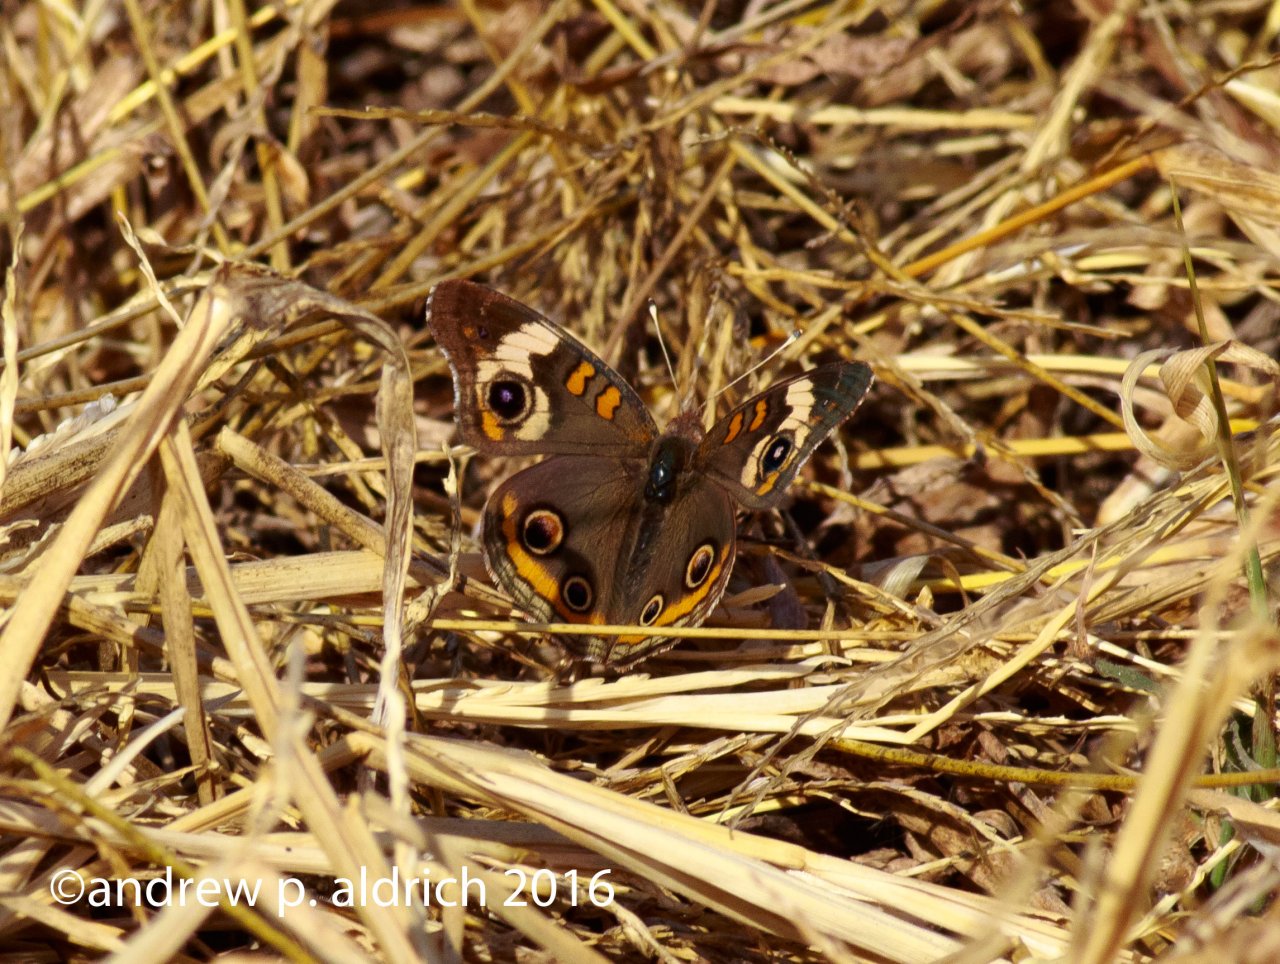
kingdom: Animalia
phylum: Arthropoda
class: Insecta
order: Lepidoptera
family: Nymphalidae
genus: Junonia
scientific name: Junonia coenia
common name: Common Buckeye
